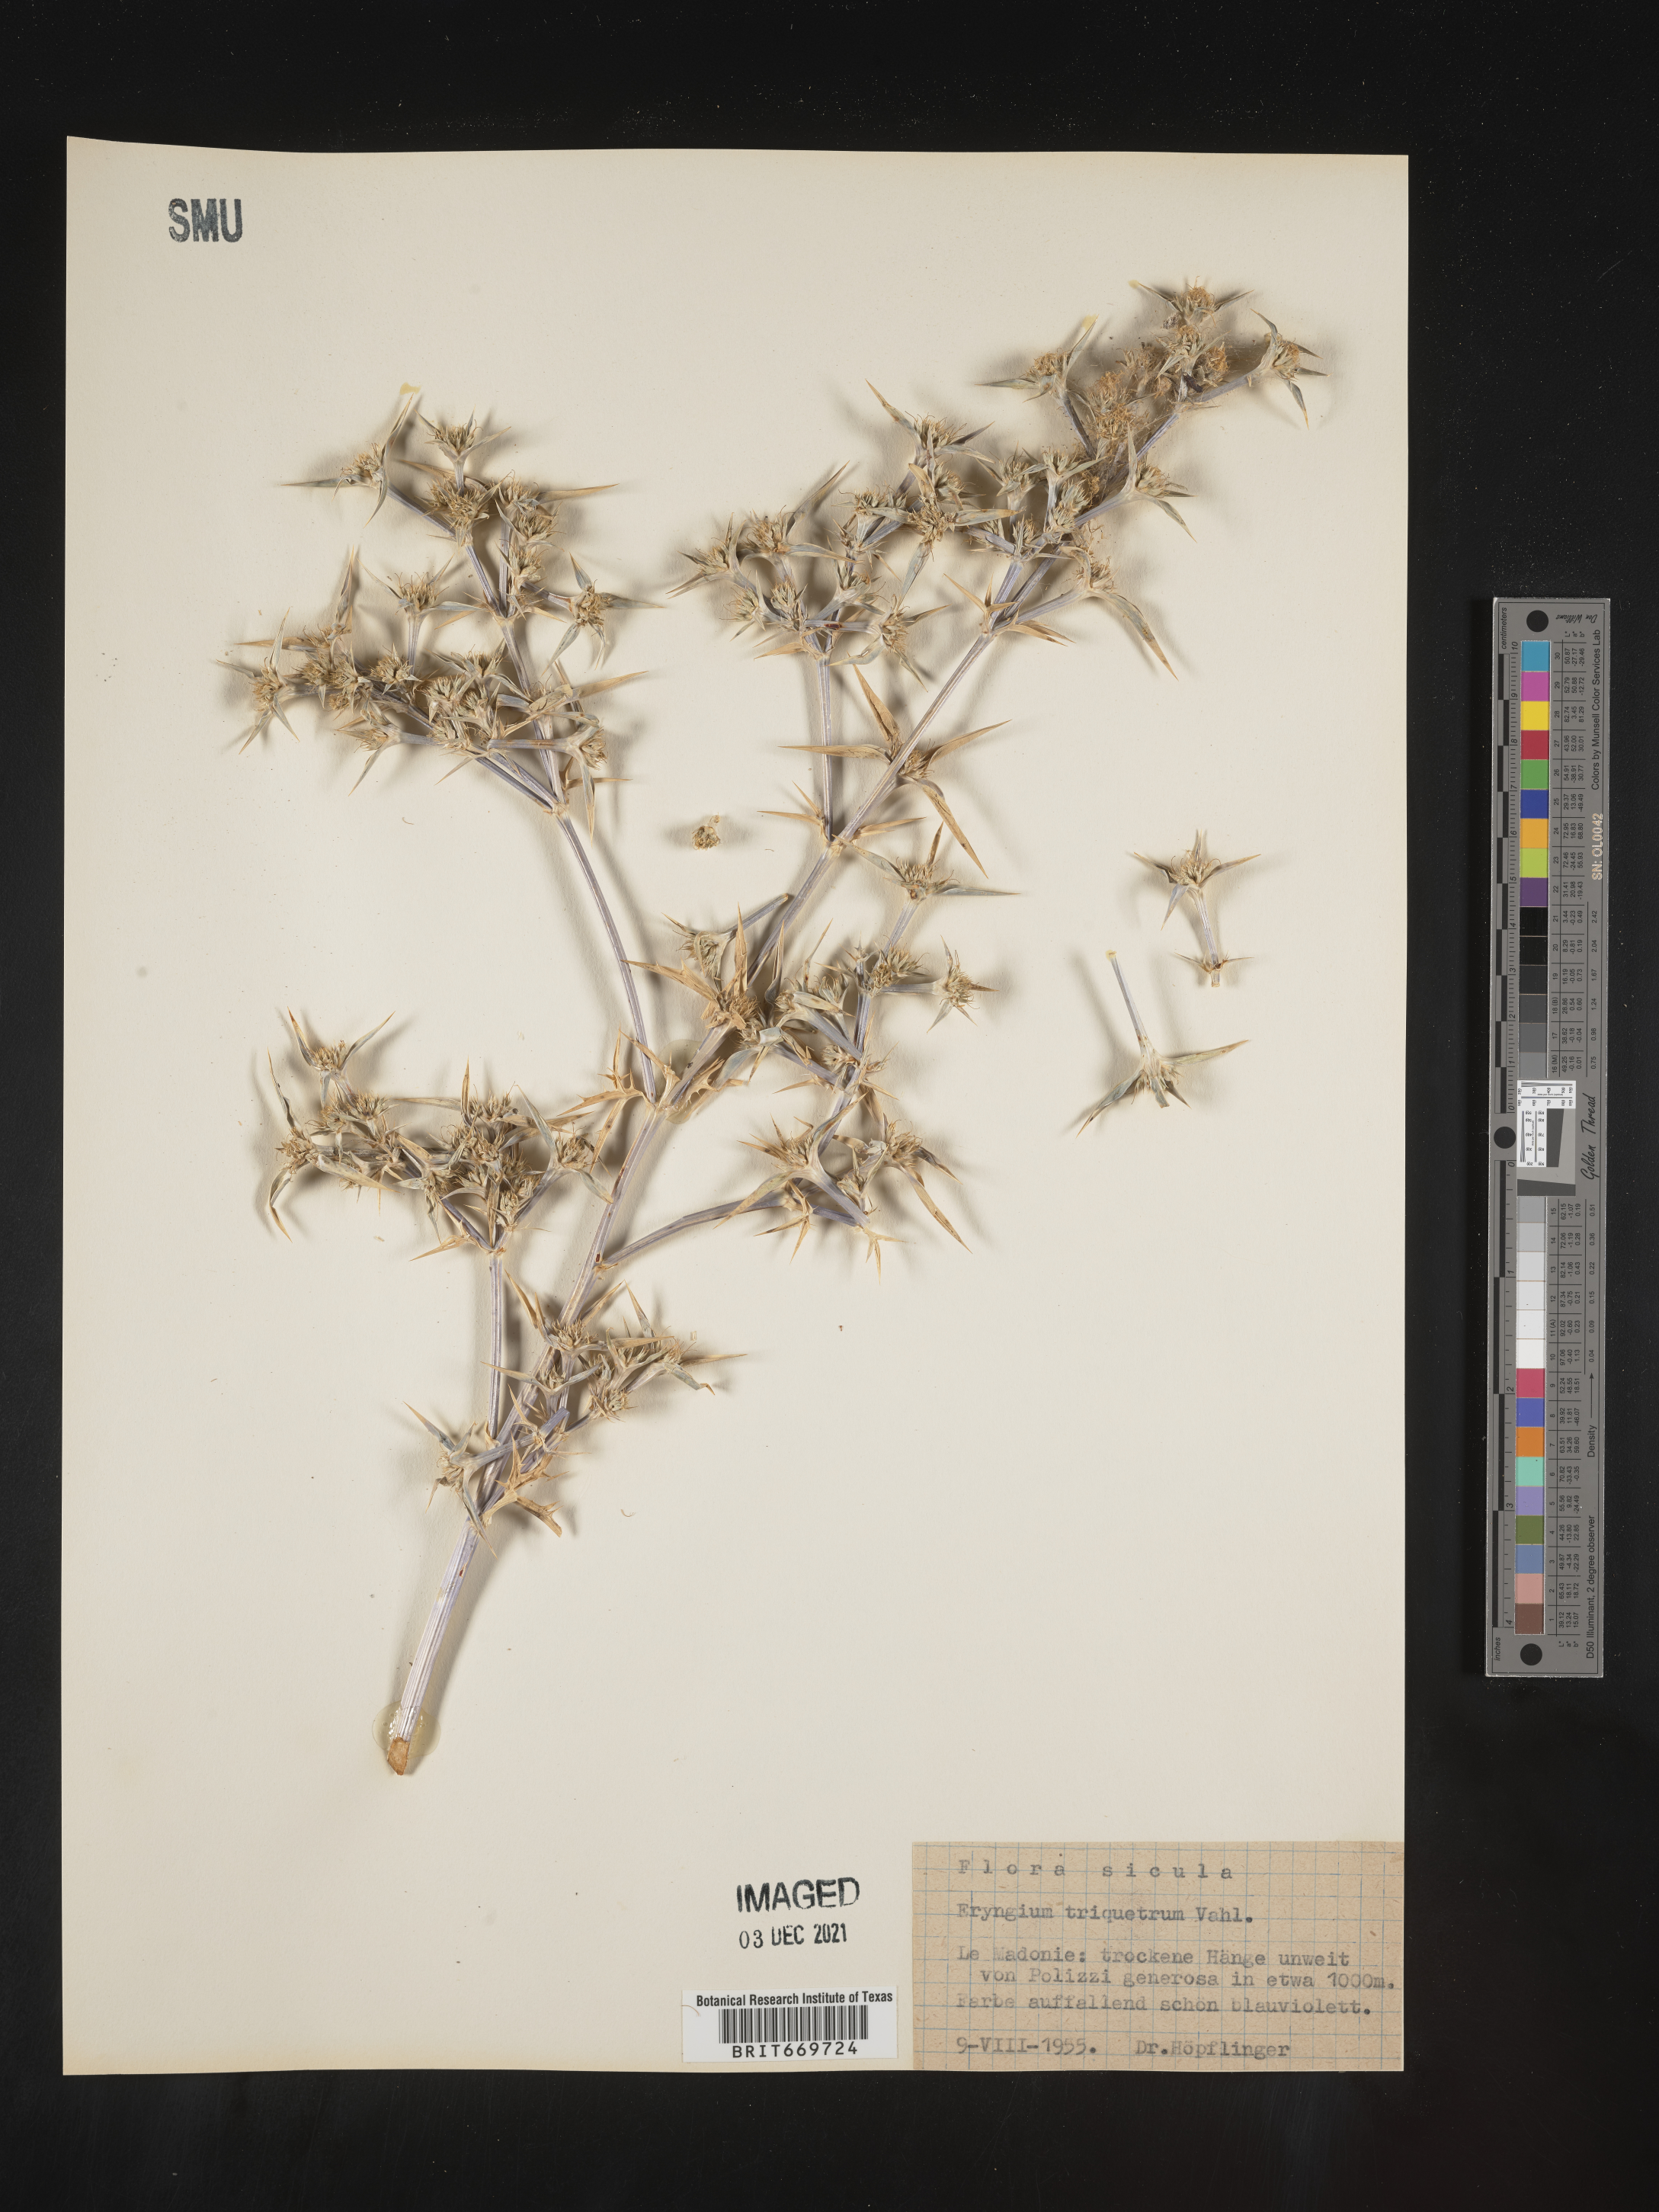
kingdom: Plantae
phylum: Tracheophyta
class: Magnoliopsida
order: Apiales
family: Apiaceae
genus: Eryngium
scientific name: Eryngium
